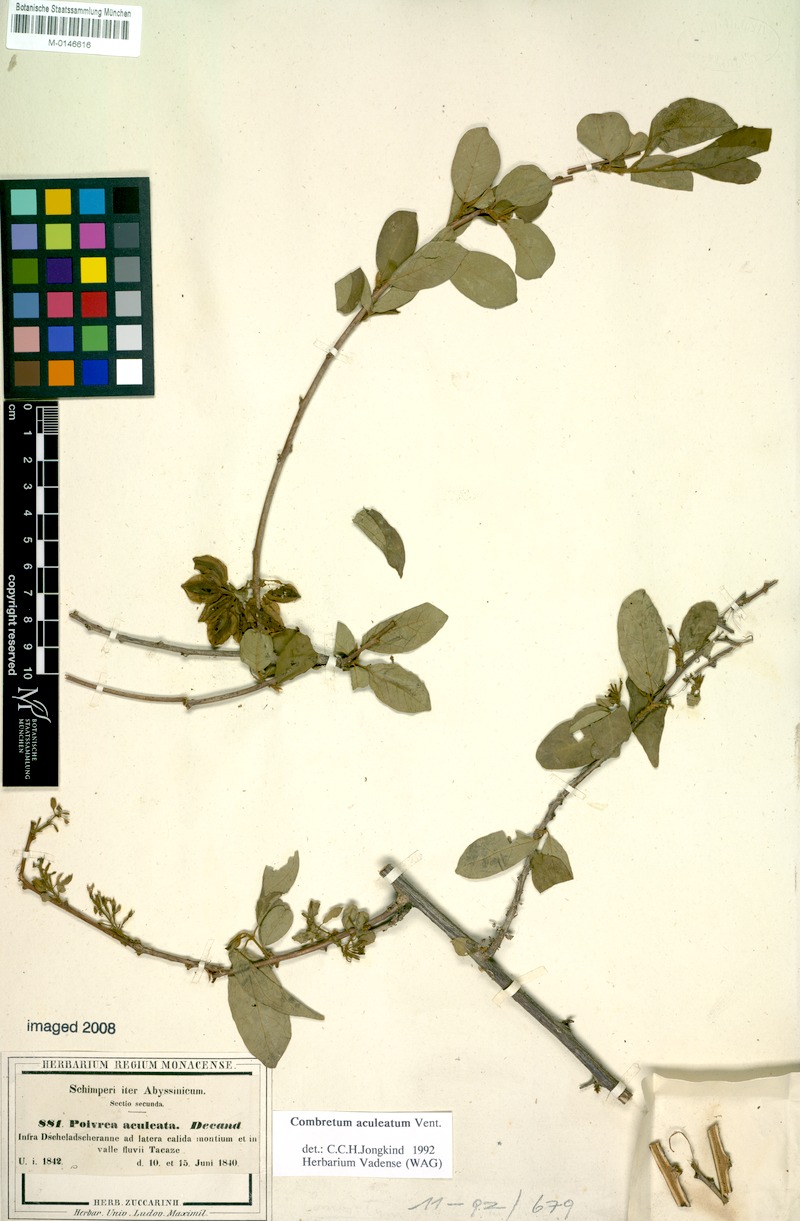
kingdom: Plantae
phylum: Tracheophyta
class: Magnoliopsida
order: Myrtales
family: Combretaceae
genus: Combretum
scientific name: Combretum aculeatum
